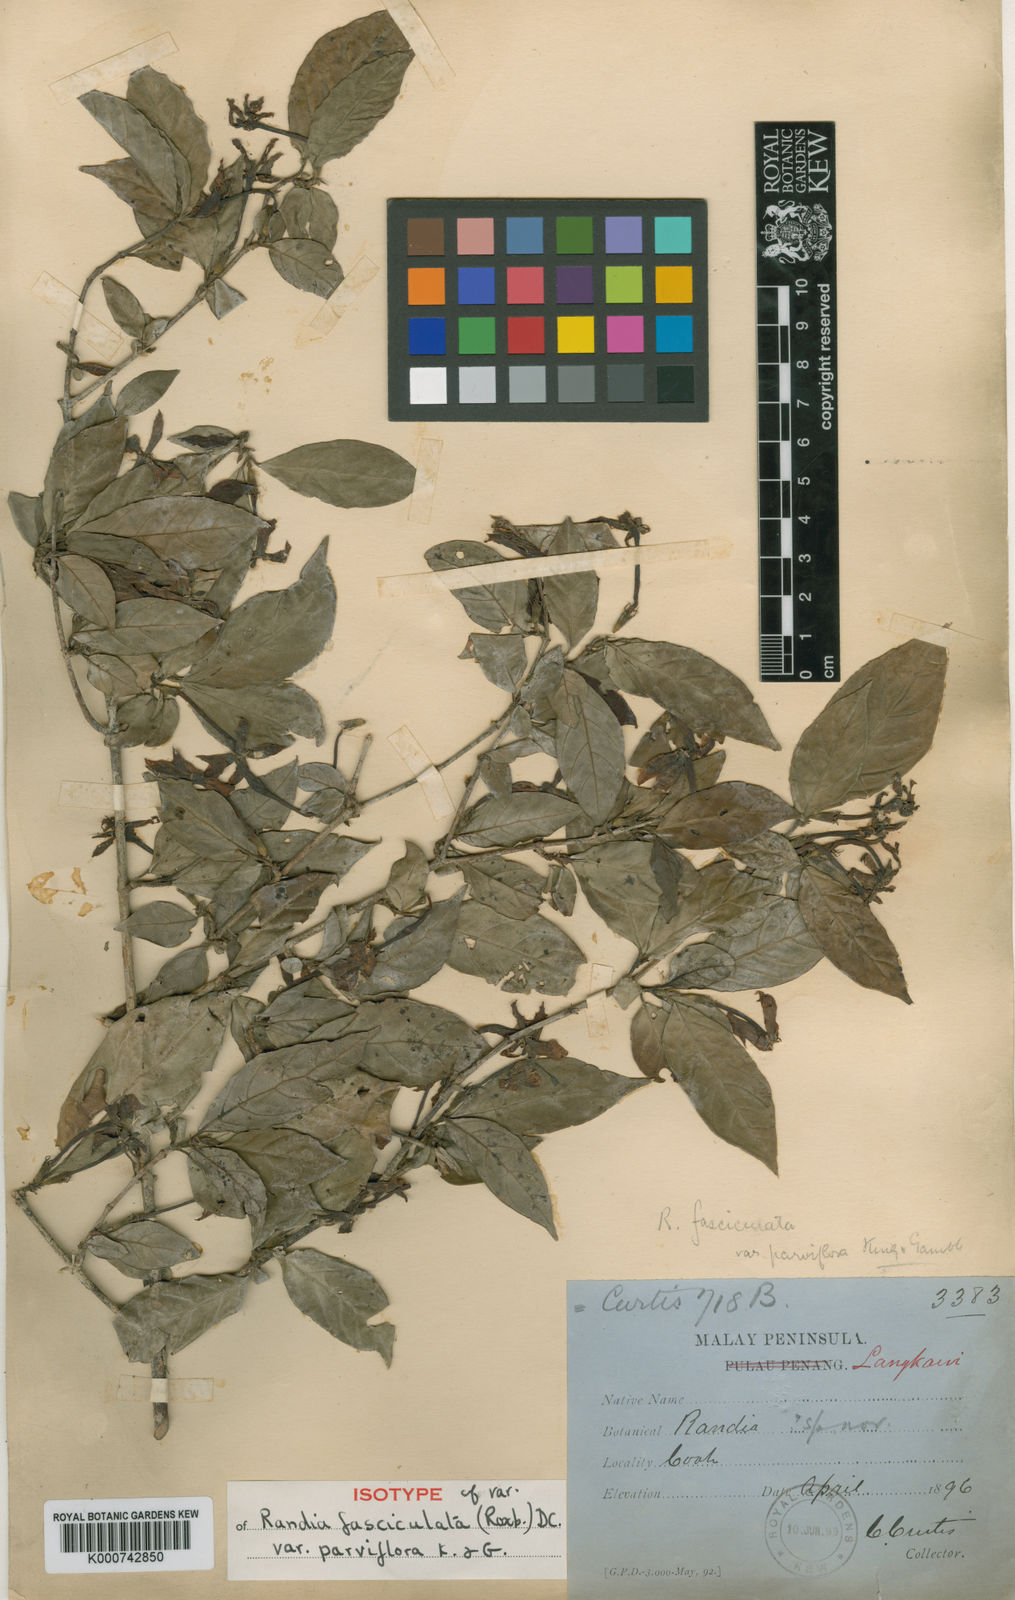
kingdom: Plantae
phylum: Tracheophyta
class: Magnoliopsida
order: Gentianales
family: Rubiaceae
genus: Benkara
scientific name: Benkara parviflora
